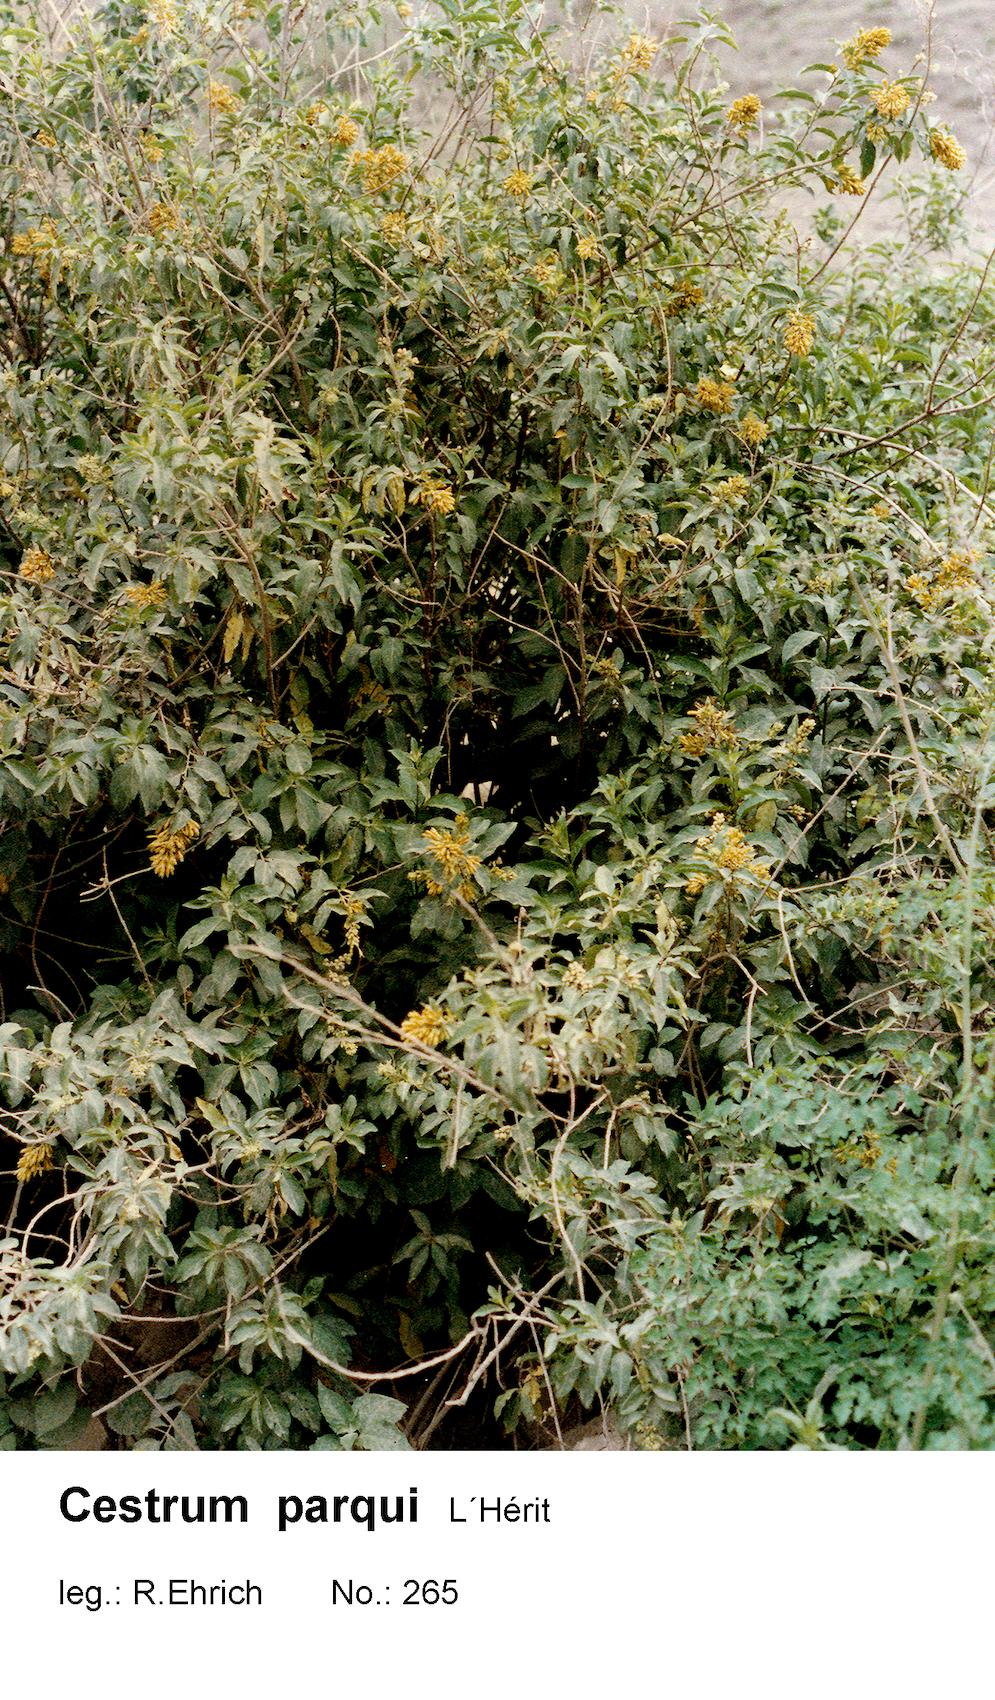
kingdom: Plantae
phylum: Tracheophyta
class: Magnoliopsida
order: Solanales
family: Solanaceae
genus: Cestrum
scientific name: Cestrum thyrsoideum
